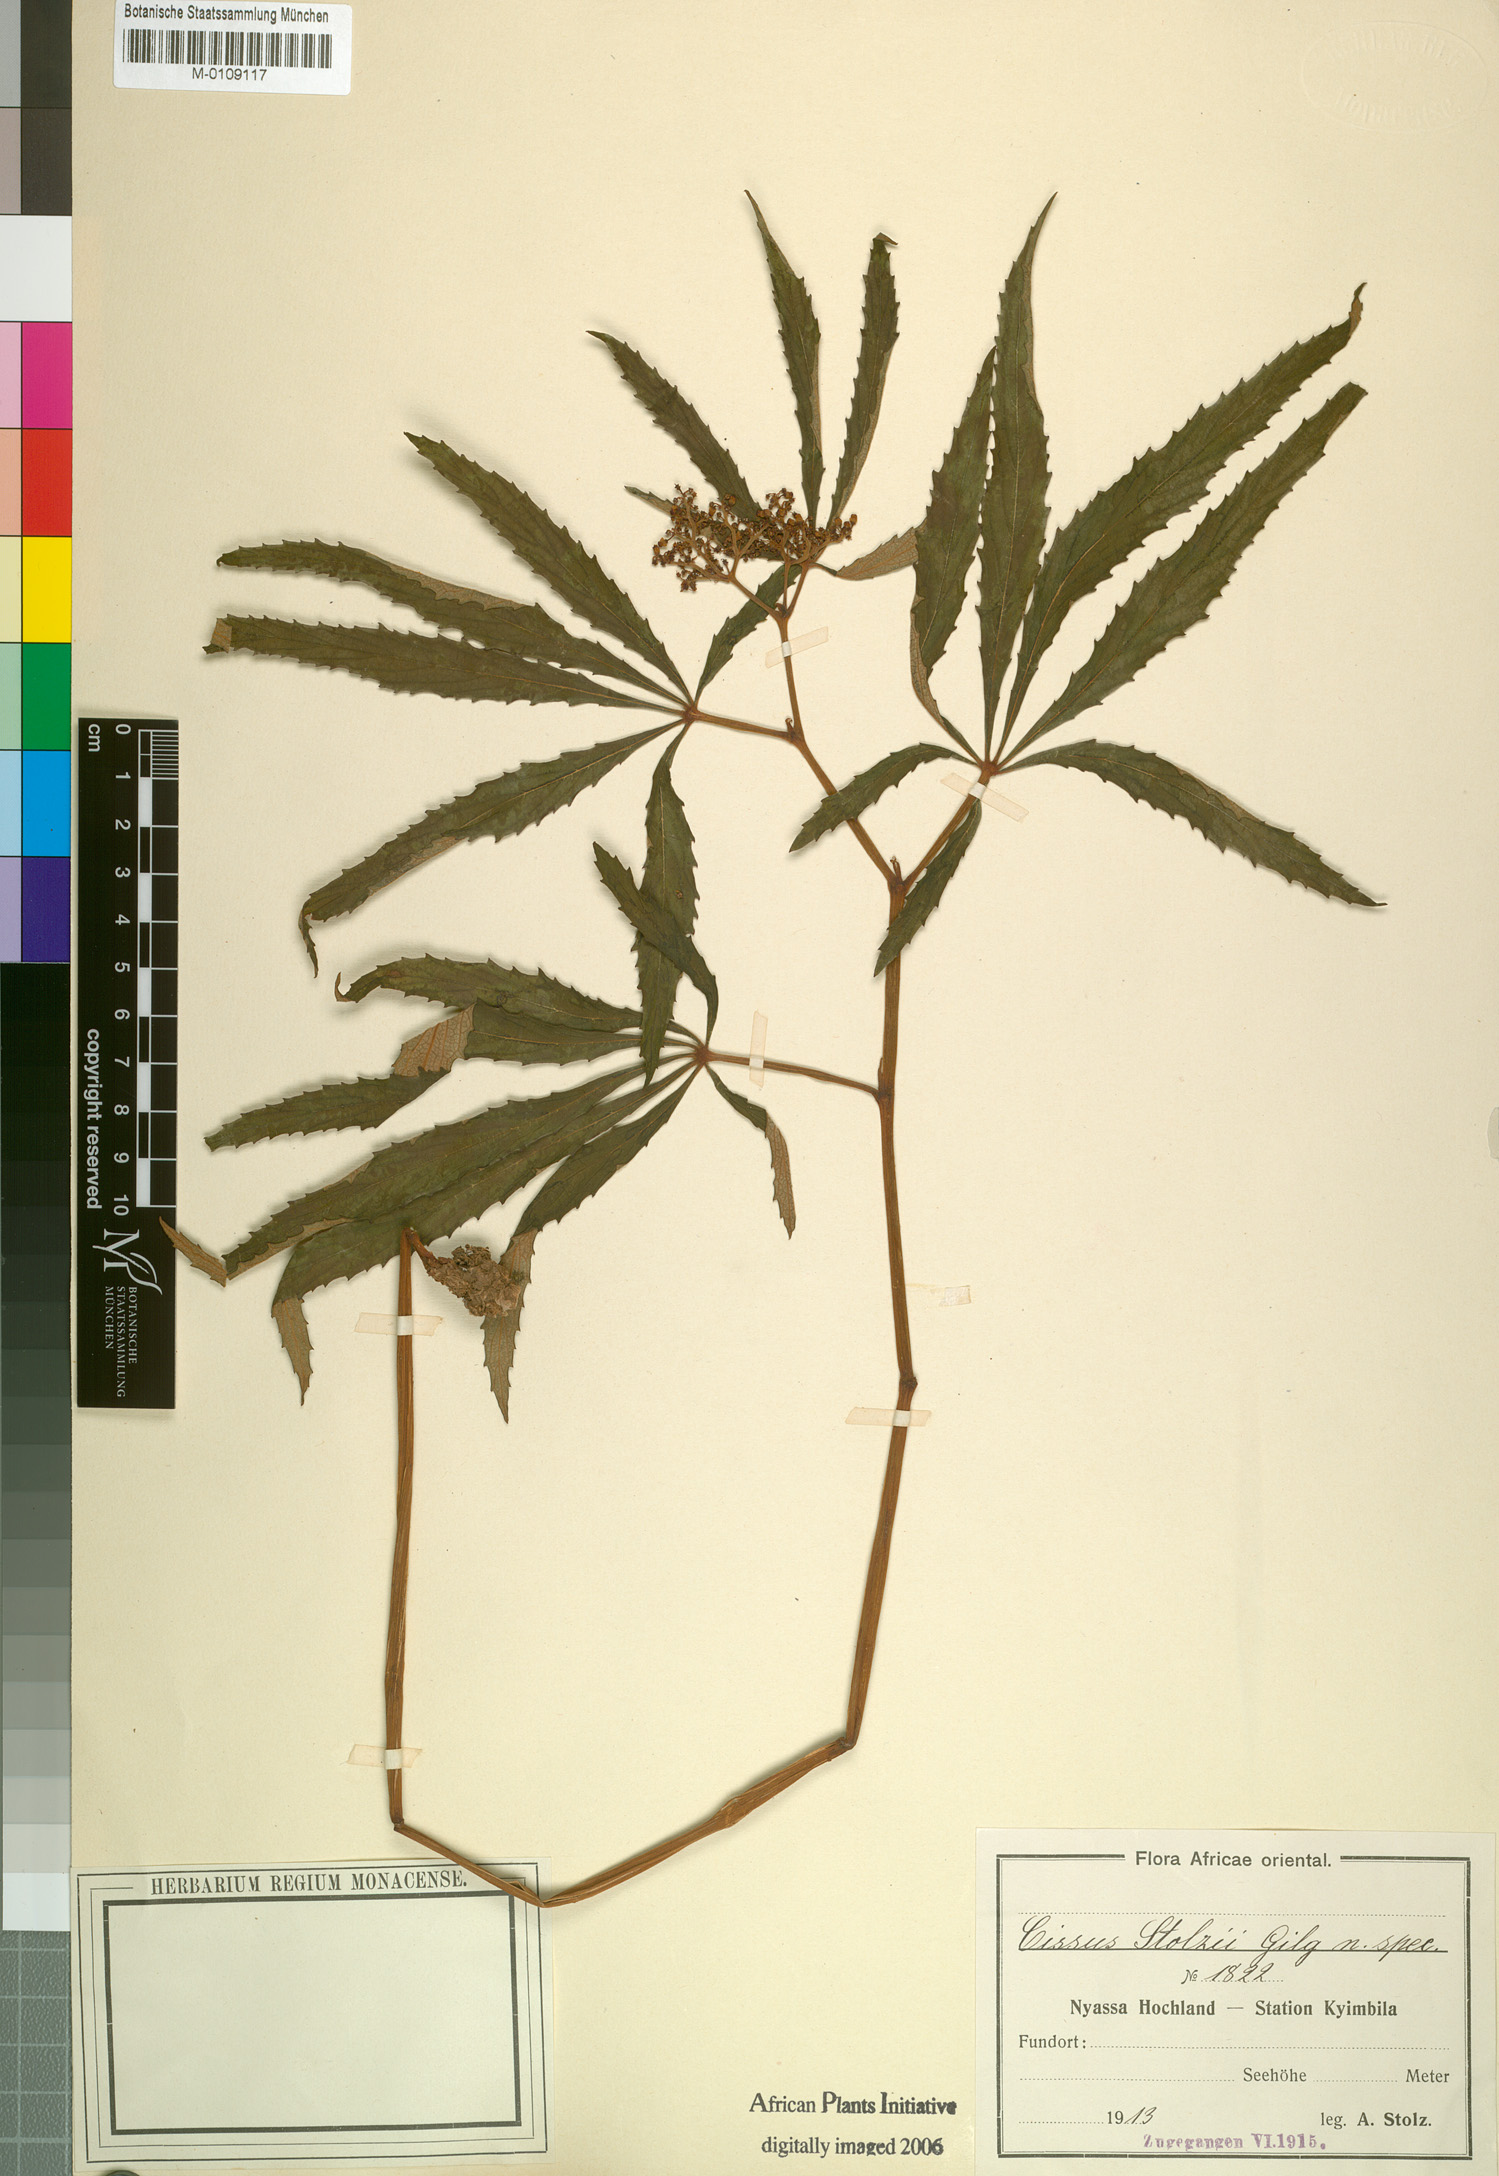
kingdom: Plantae
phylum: Tracheophyta
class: Magnoliopsida
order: Vitales
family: Vitaceae
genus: Cissus
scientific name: Cissus
